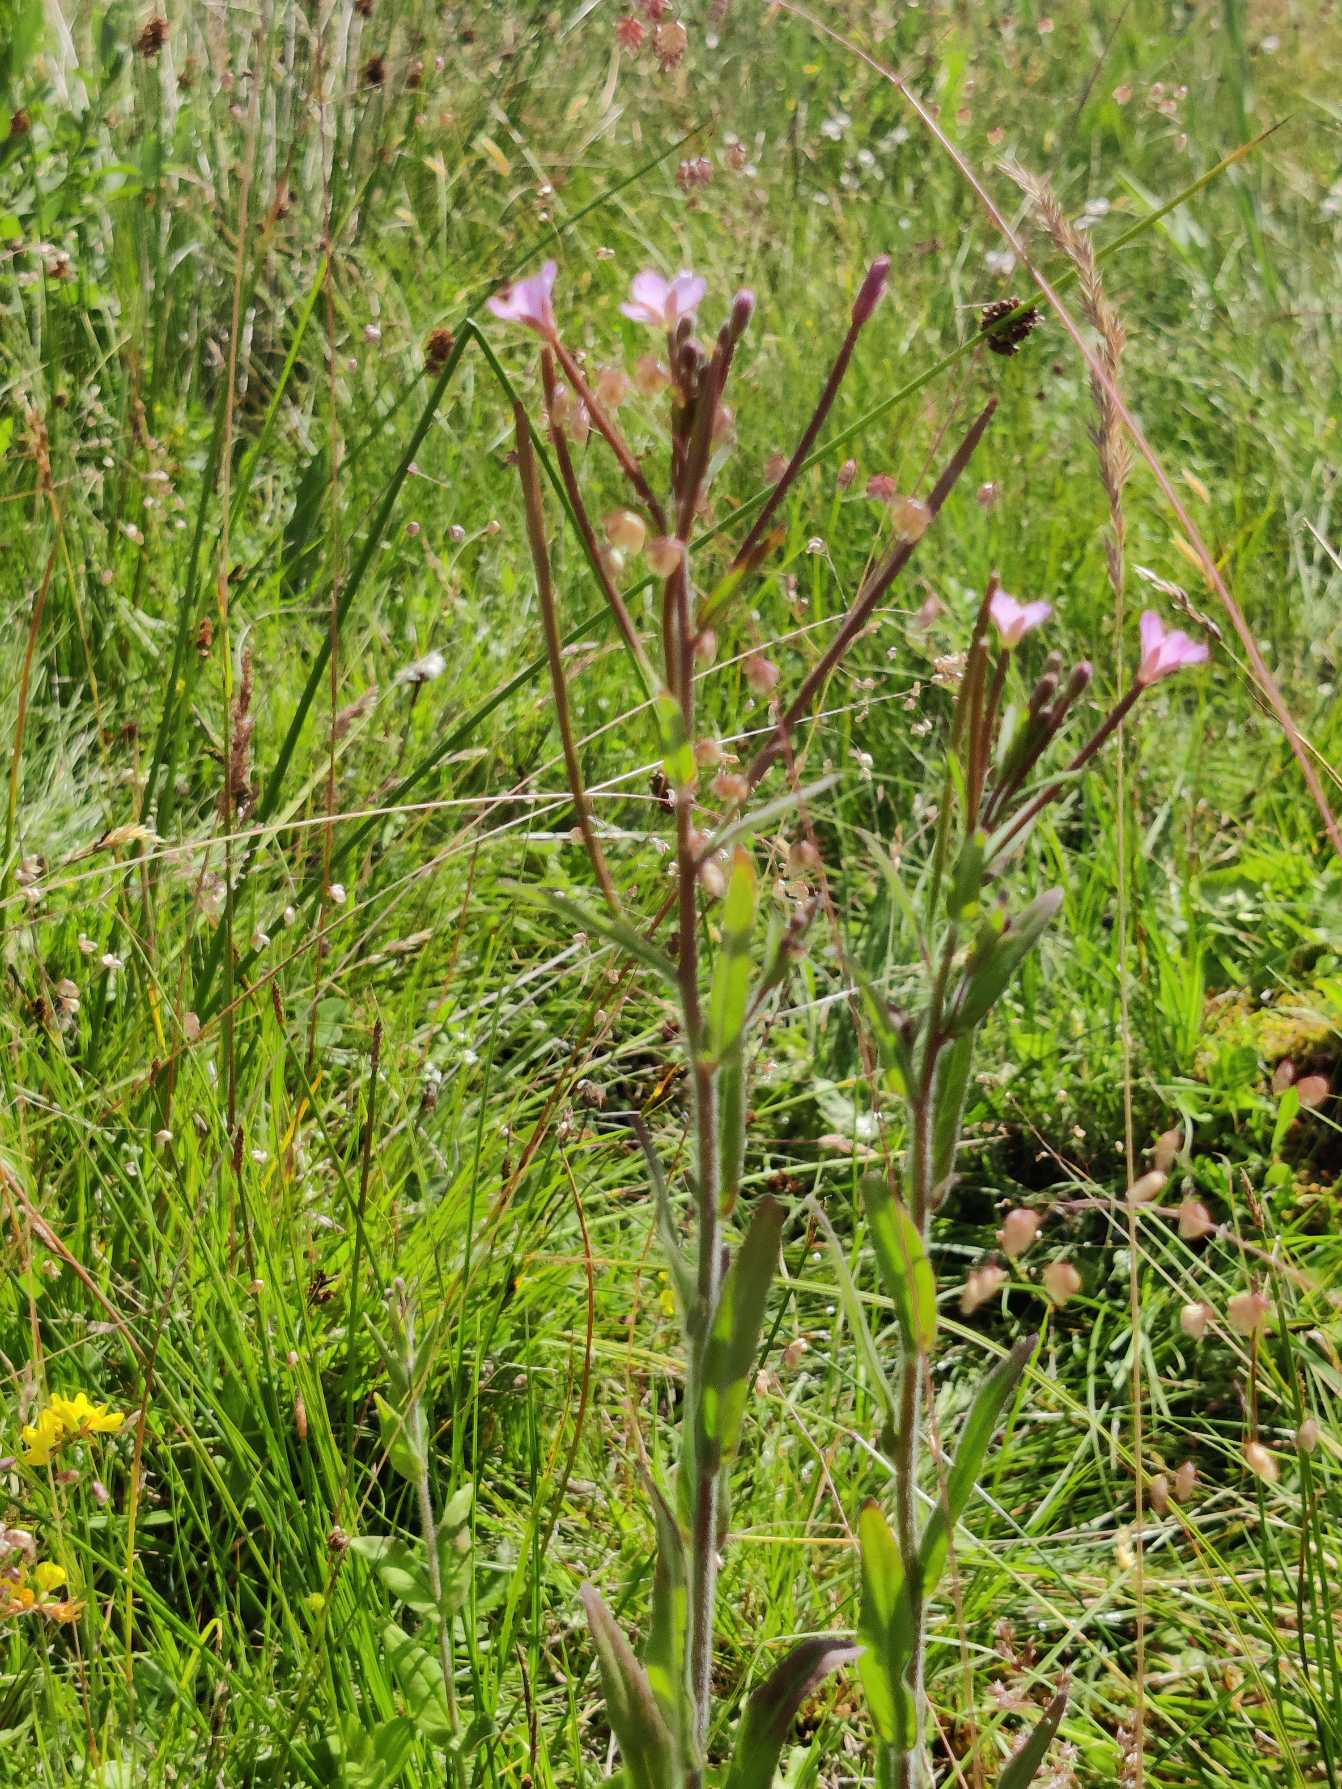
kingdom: Plantae
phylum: Tracheophyta
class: Magnoliopsida
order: Myrtales
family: Onagraceae
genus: Epilobium
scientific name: Epilobium parviflorum
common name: Dunet dueurt
